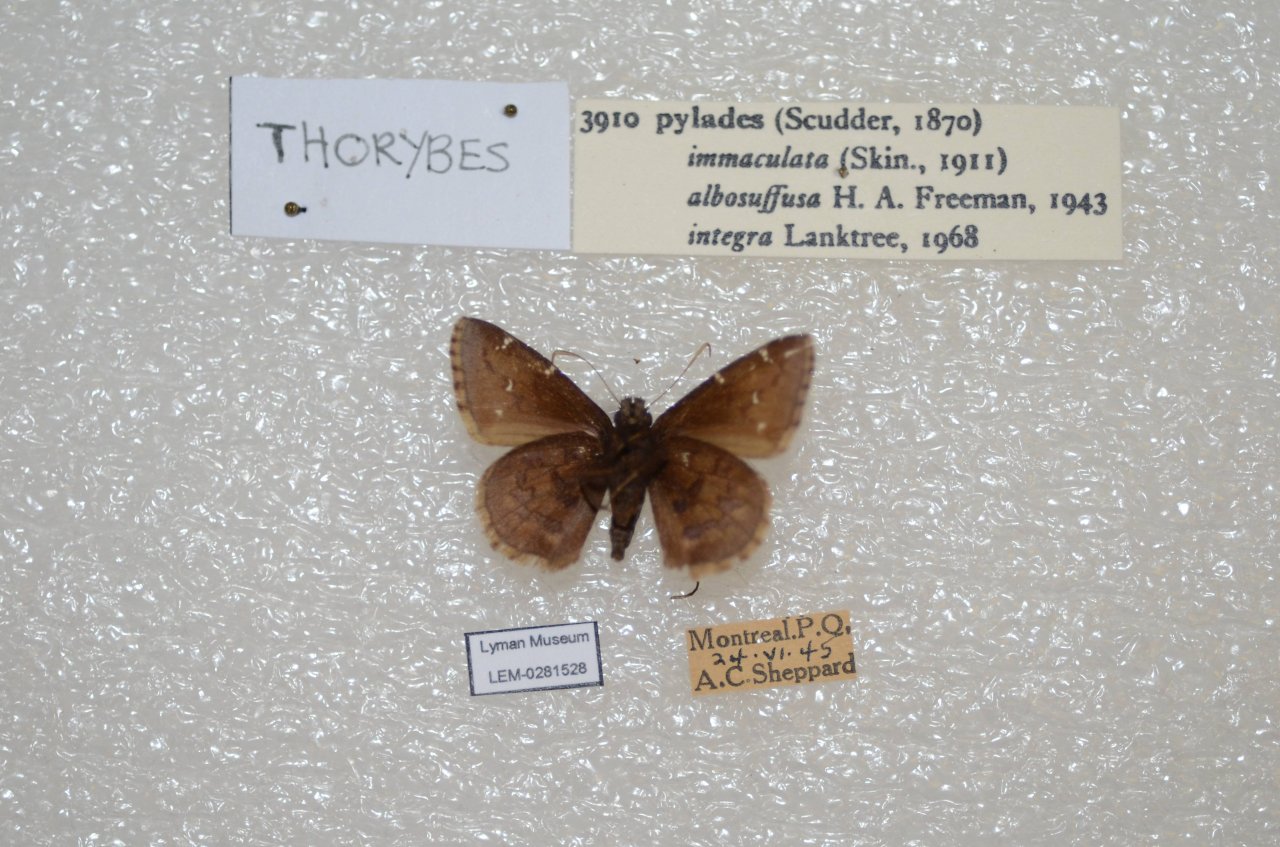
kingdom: Animalia
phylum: Arthropoda
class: Insecta
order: Lepidoptera
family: Hesperiidae
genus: Autochton
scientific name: Autochton
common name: Northern Cloudywing
